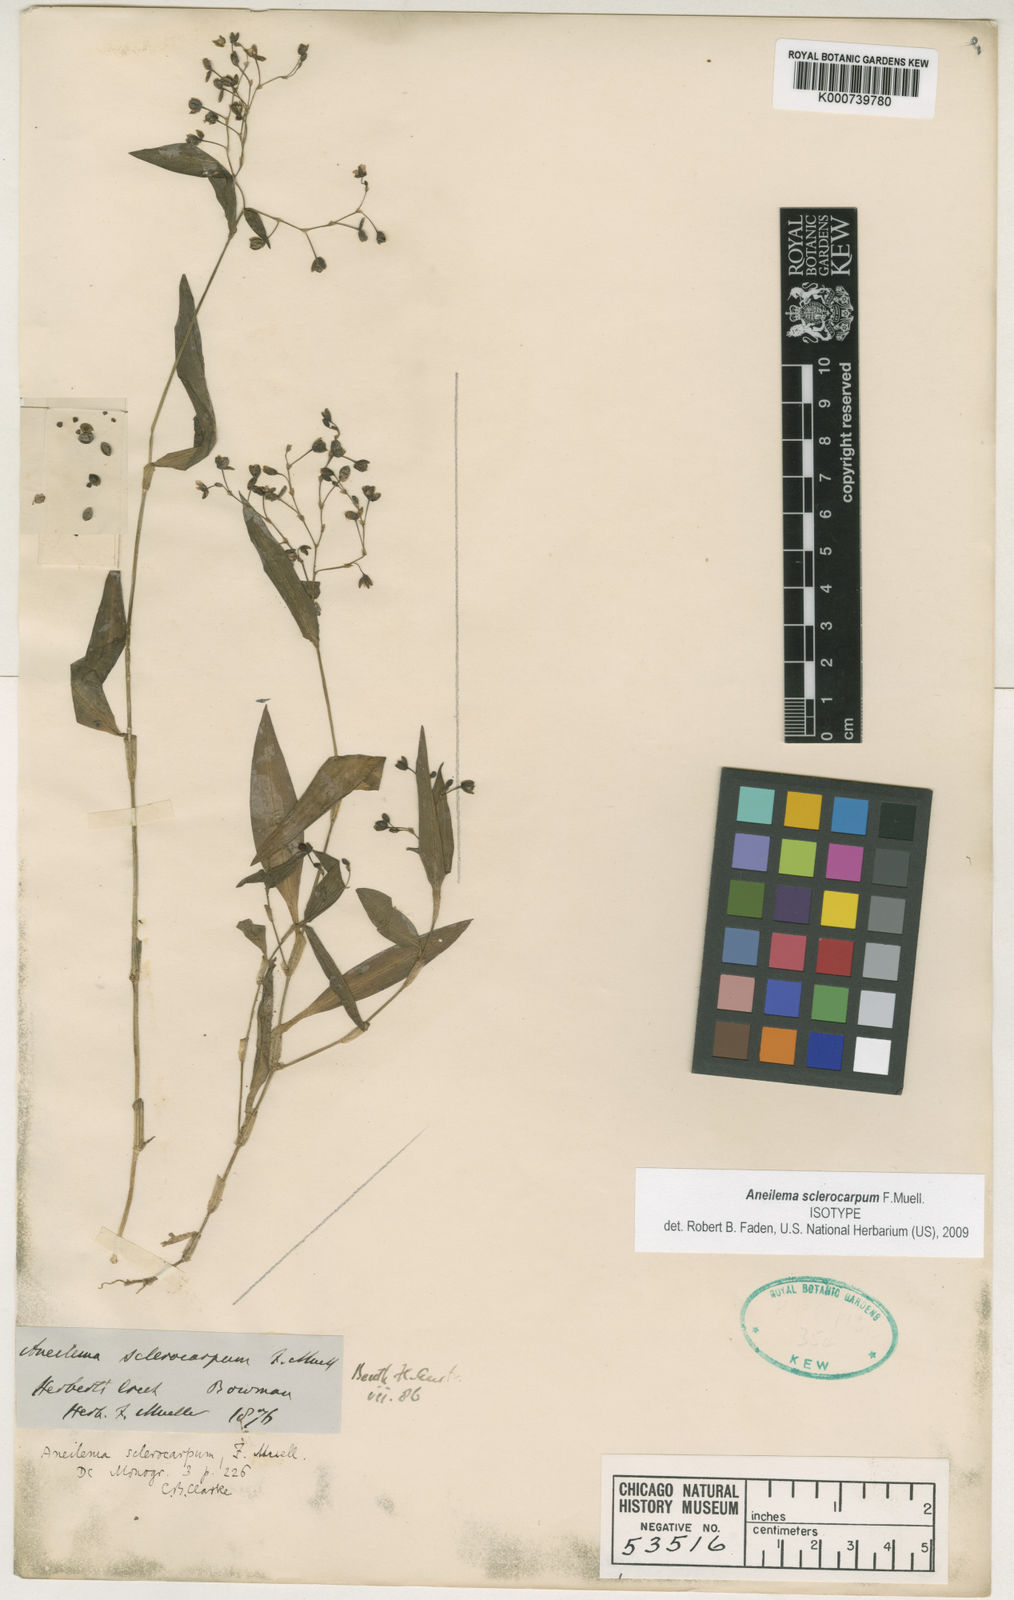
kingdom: Plantae
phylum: Tracheophyta
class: Liliopsida
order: Commelinales
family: Commelinaceae
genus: Aneilema
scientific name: Aneilema sclerocarpum
